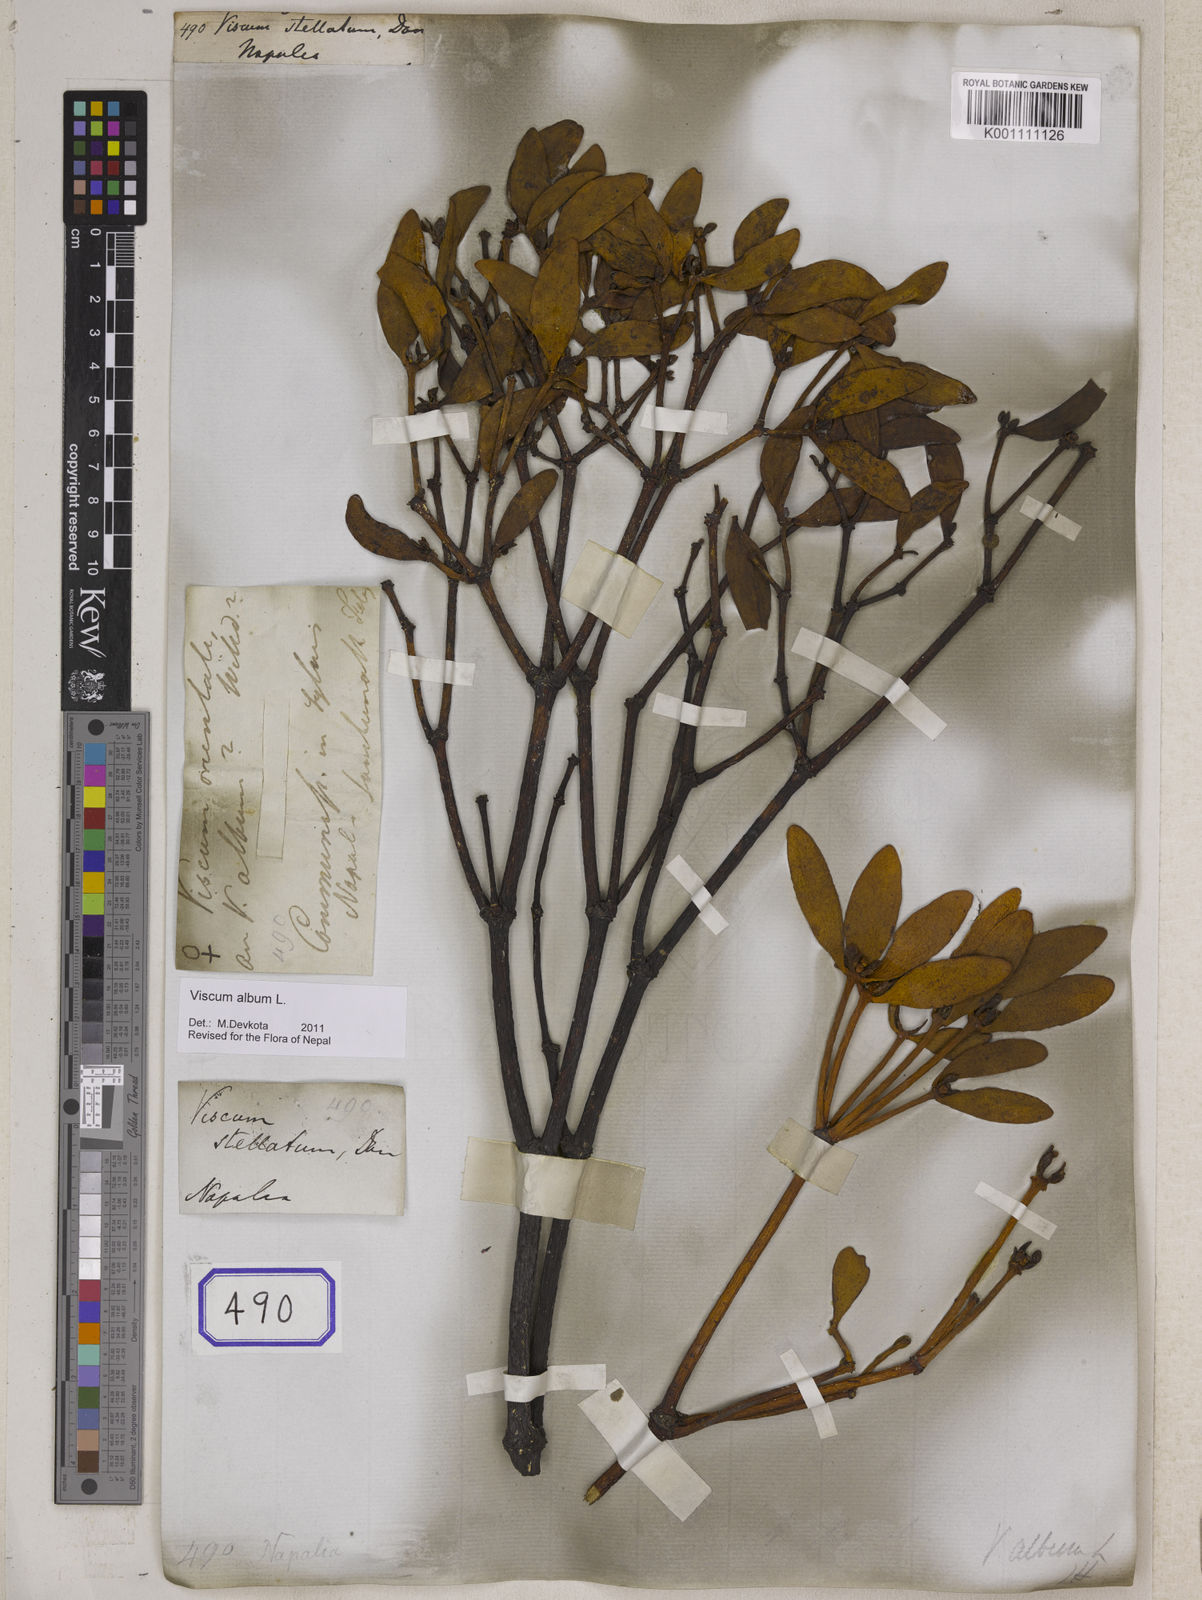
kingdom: Plantae
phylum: Tracheophyta
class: Magnoliopsida
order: Santalales
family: Viscaceae
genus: Viscum
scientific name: Viscum album
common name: Mistletoe
